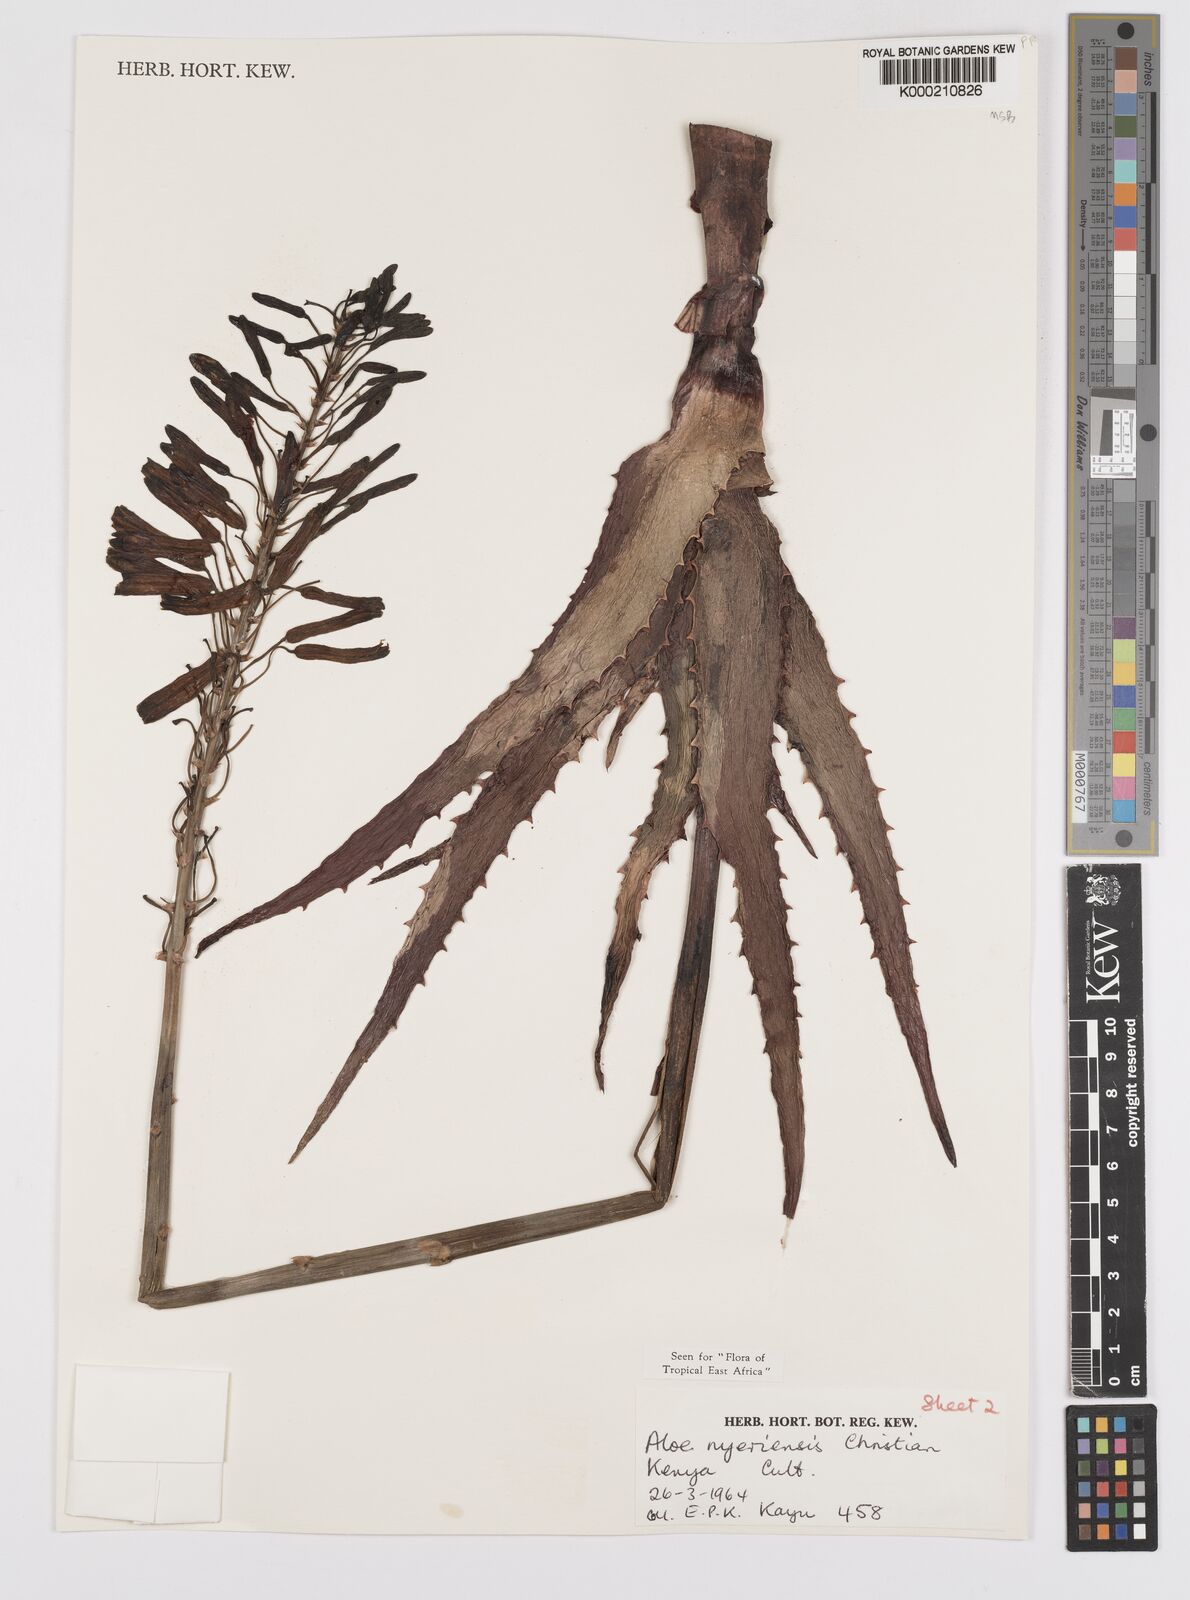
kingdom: Plantae
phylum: Tracheophyta
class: Liliopsida
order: Asparagales
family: Asphodelaceae
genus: Aloe
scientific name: Aloe nyeriensis
